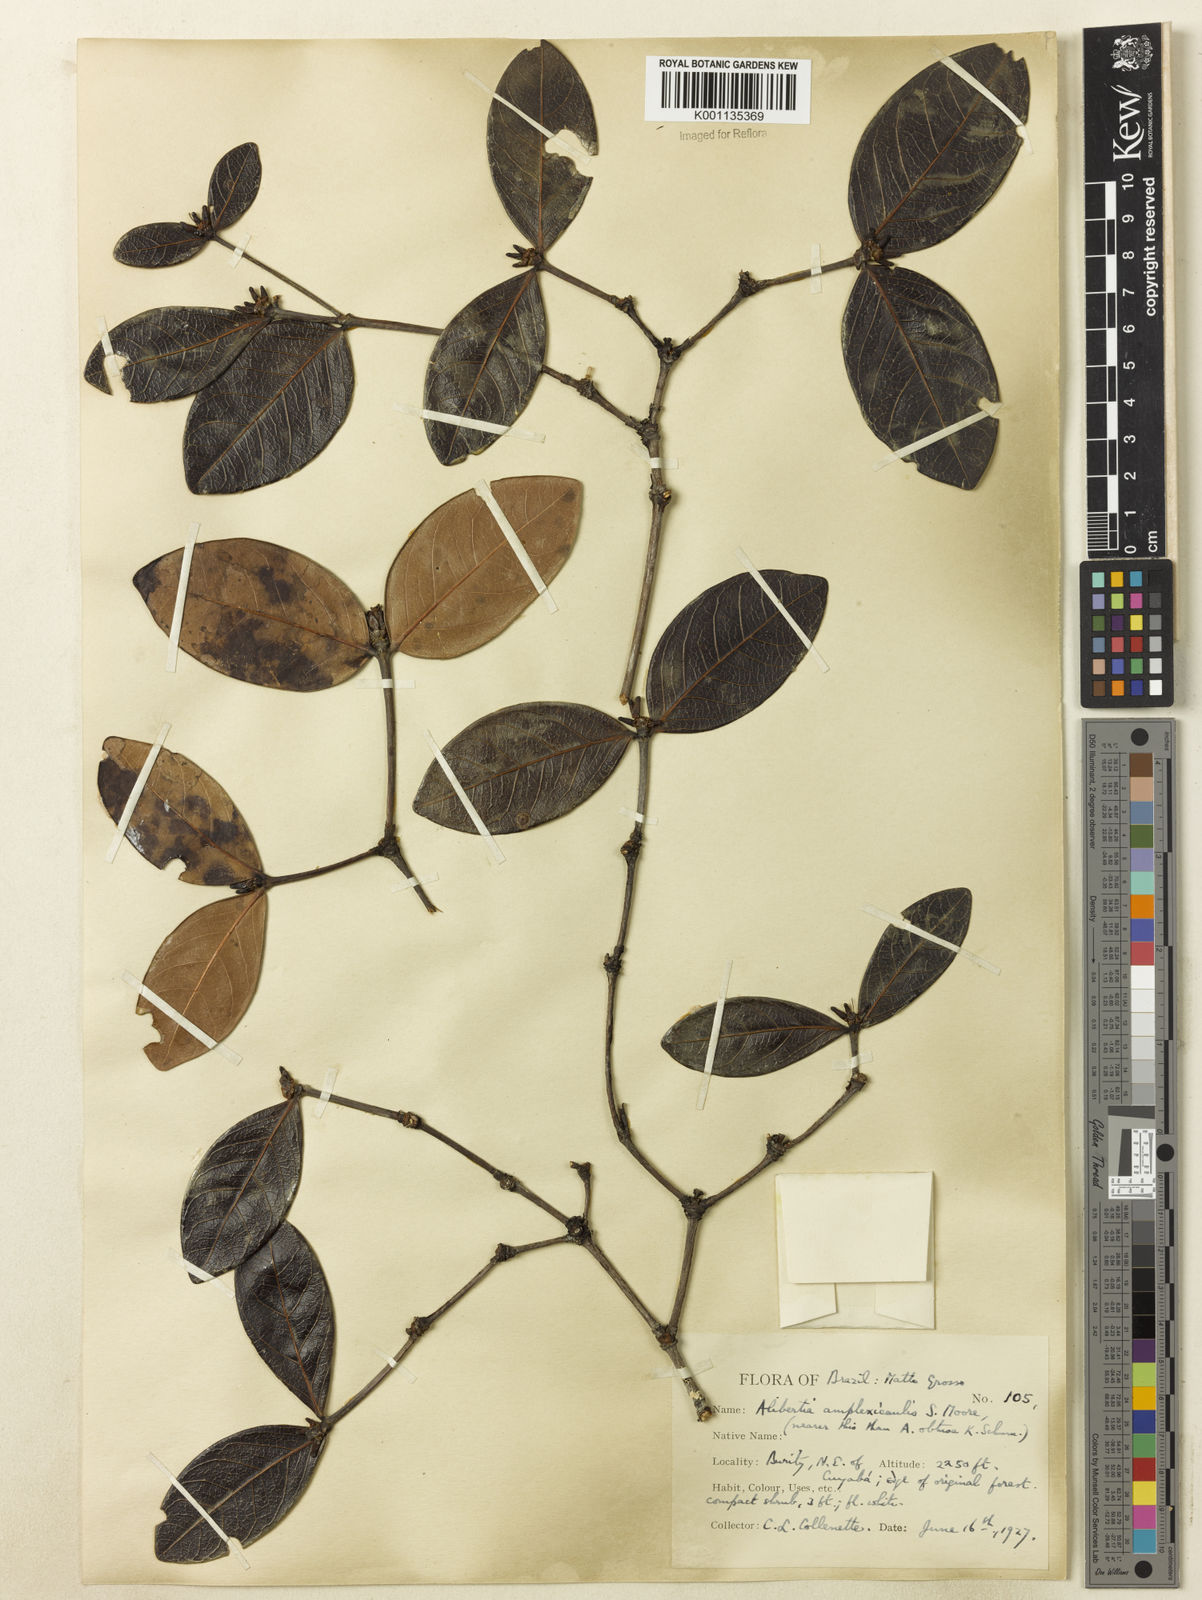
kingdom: Plantae
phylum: Tracheophyta
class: Magnoliopsida
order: Gentianales
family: Rubiaceae
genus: Cordiera
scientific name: Cordiera humilis
